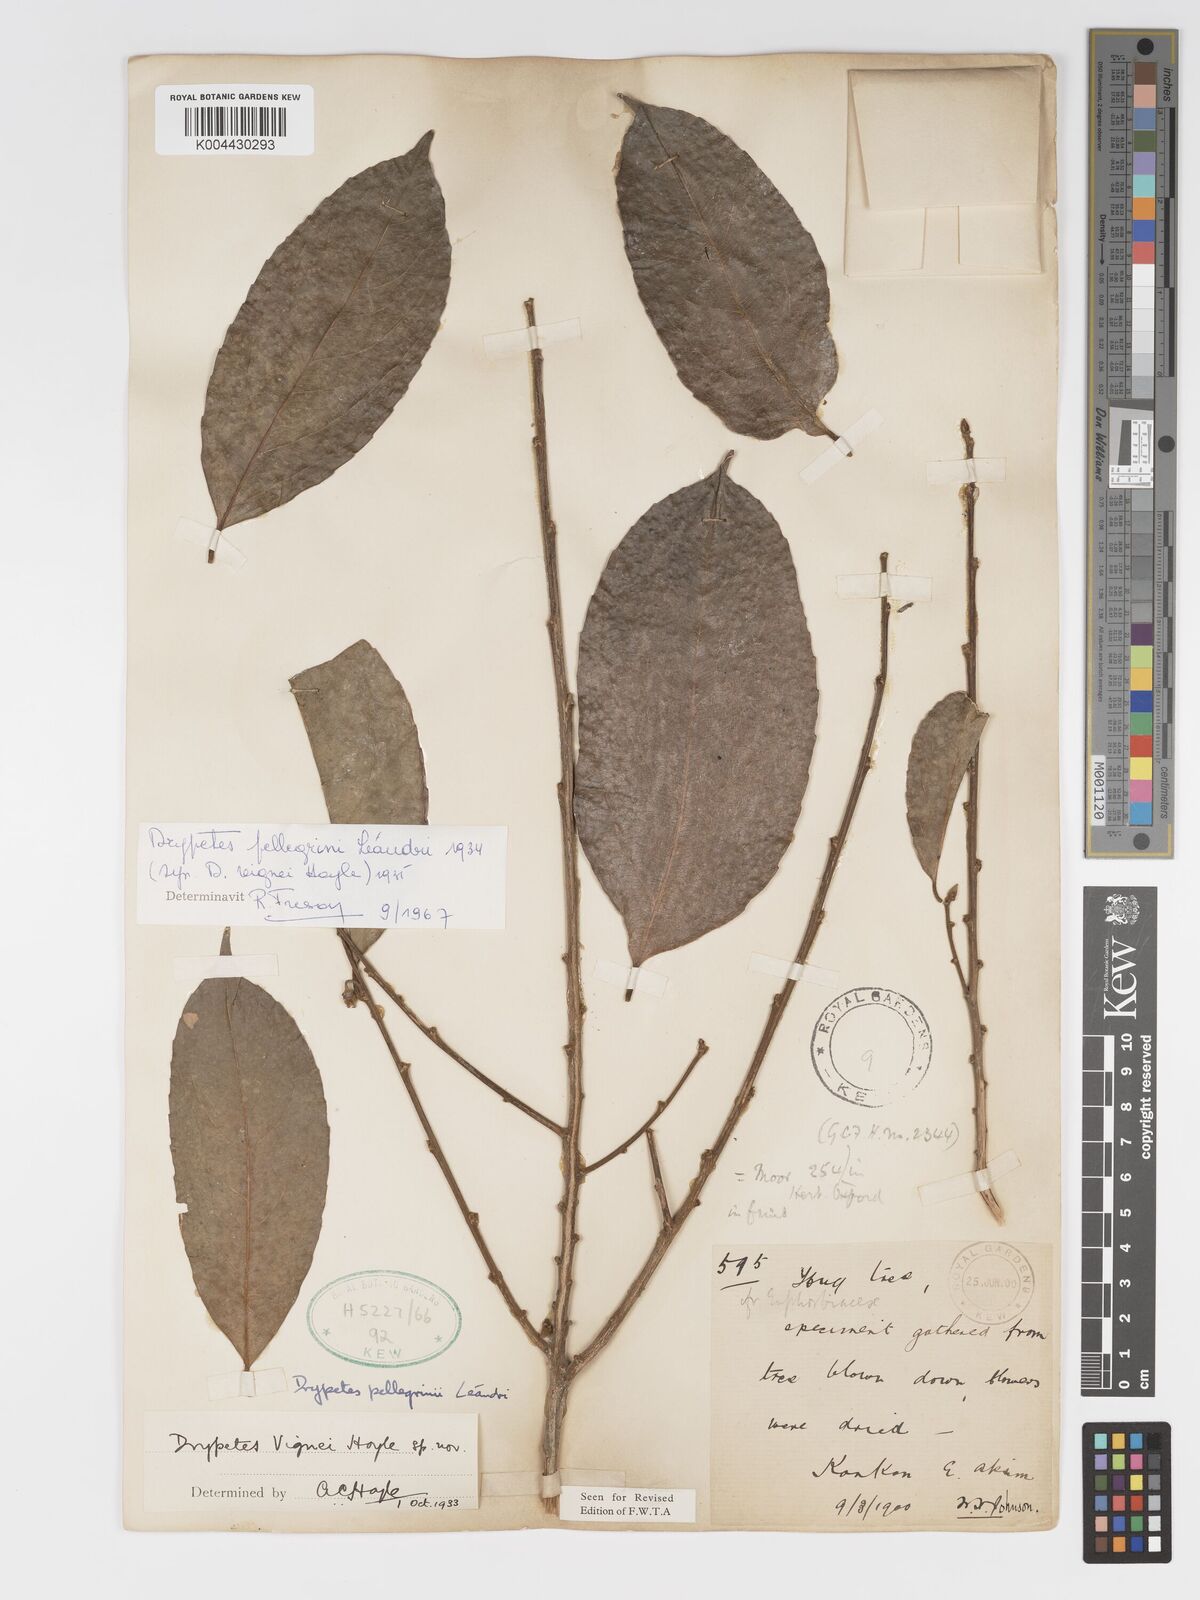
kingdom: Plantae
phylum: Tracheophyta
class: Magnoliopsida
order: Malpighiales
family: Putranjivaceae
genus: Drypetes
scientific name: Drypetes pellegrinii
